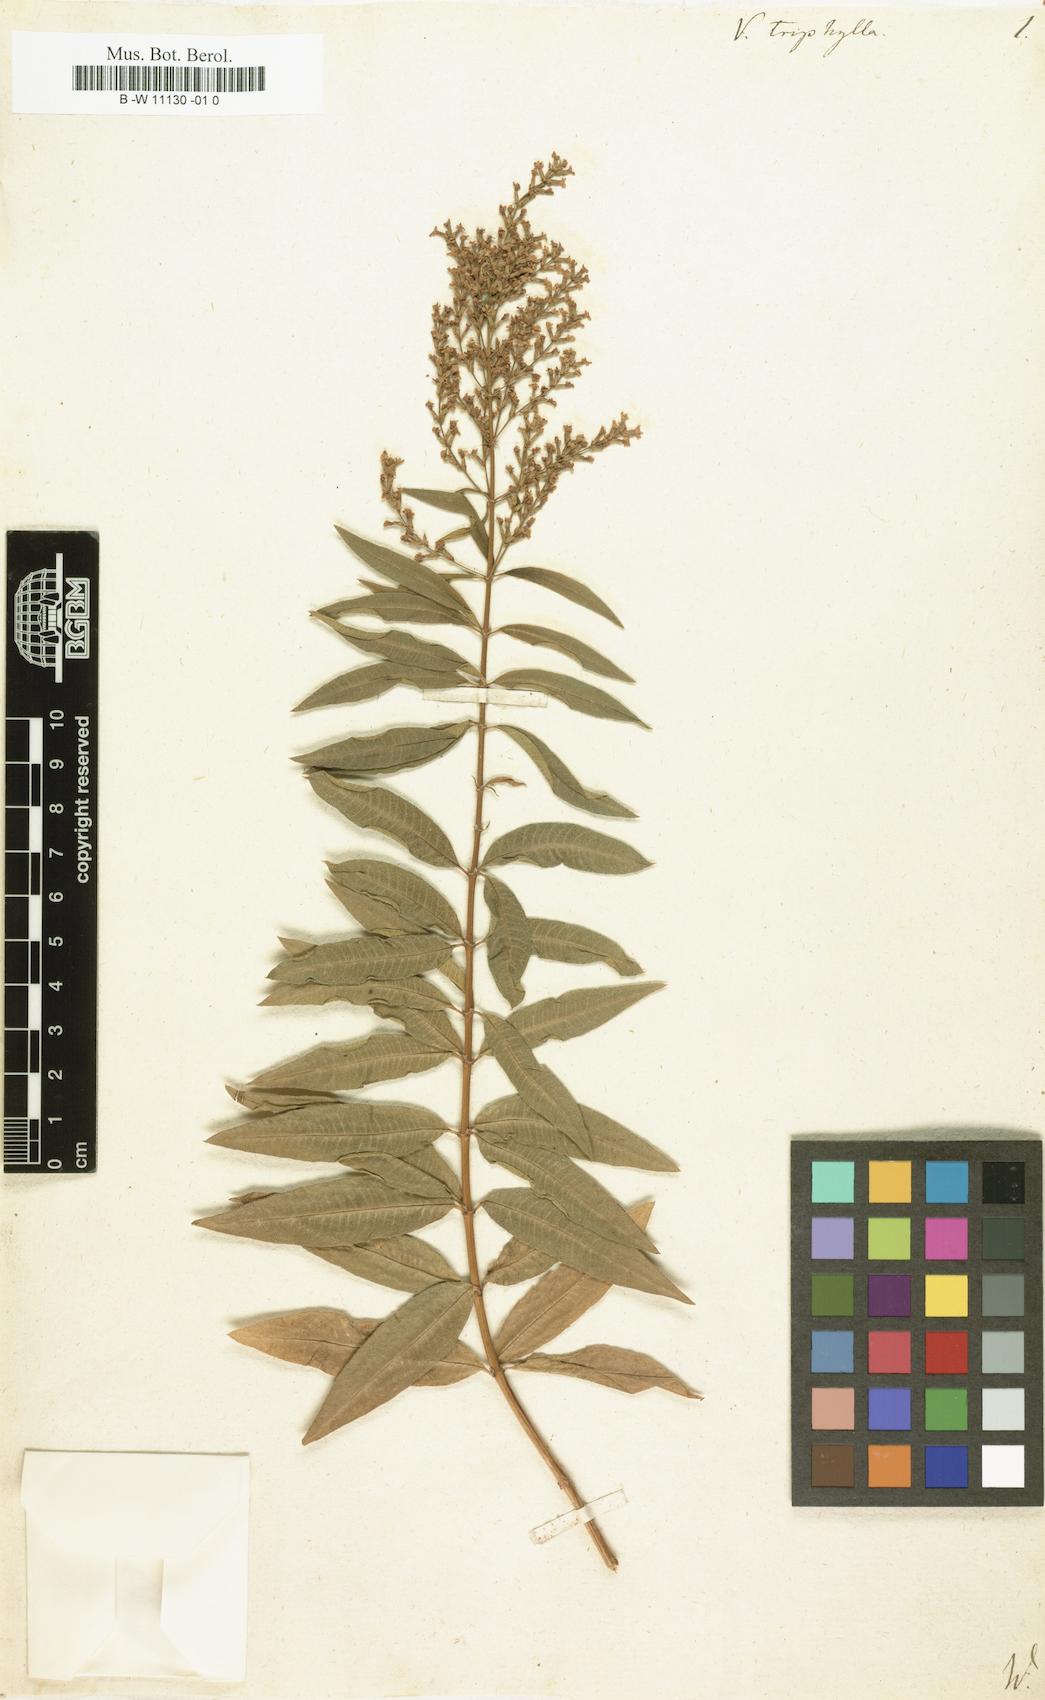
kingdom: Plantae
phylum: Tracheophyta
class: Magnoliopsida
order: Lamiales
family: Verbenaceae
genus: Aloysia
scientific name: Aloysia citrodora
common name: Lemon beebrush
